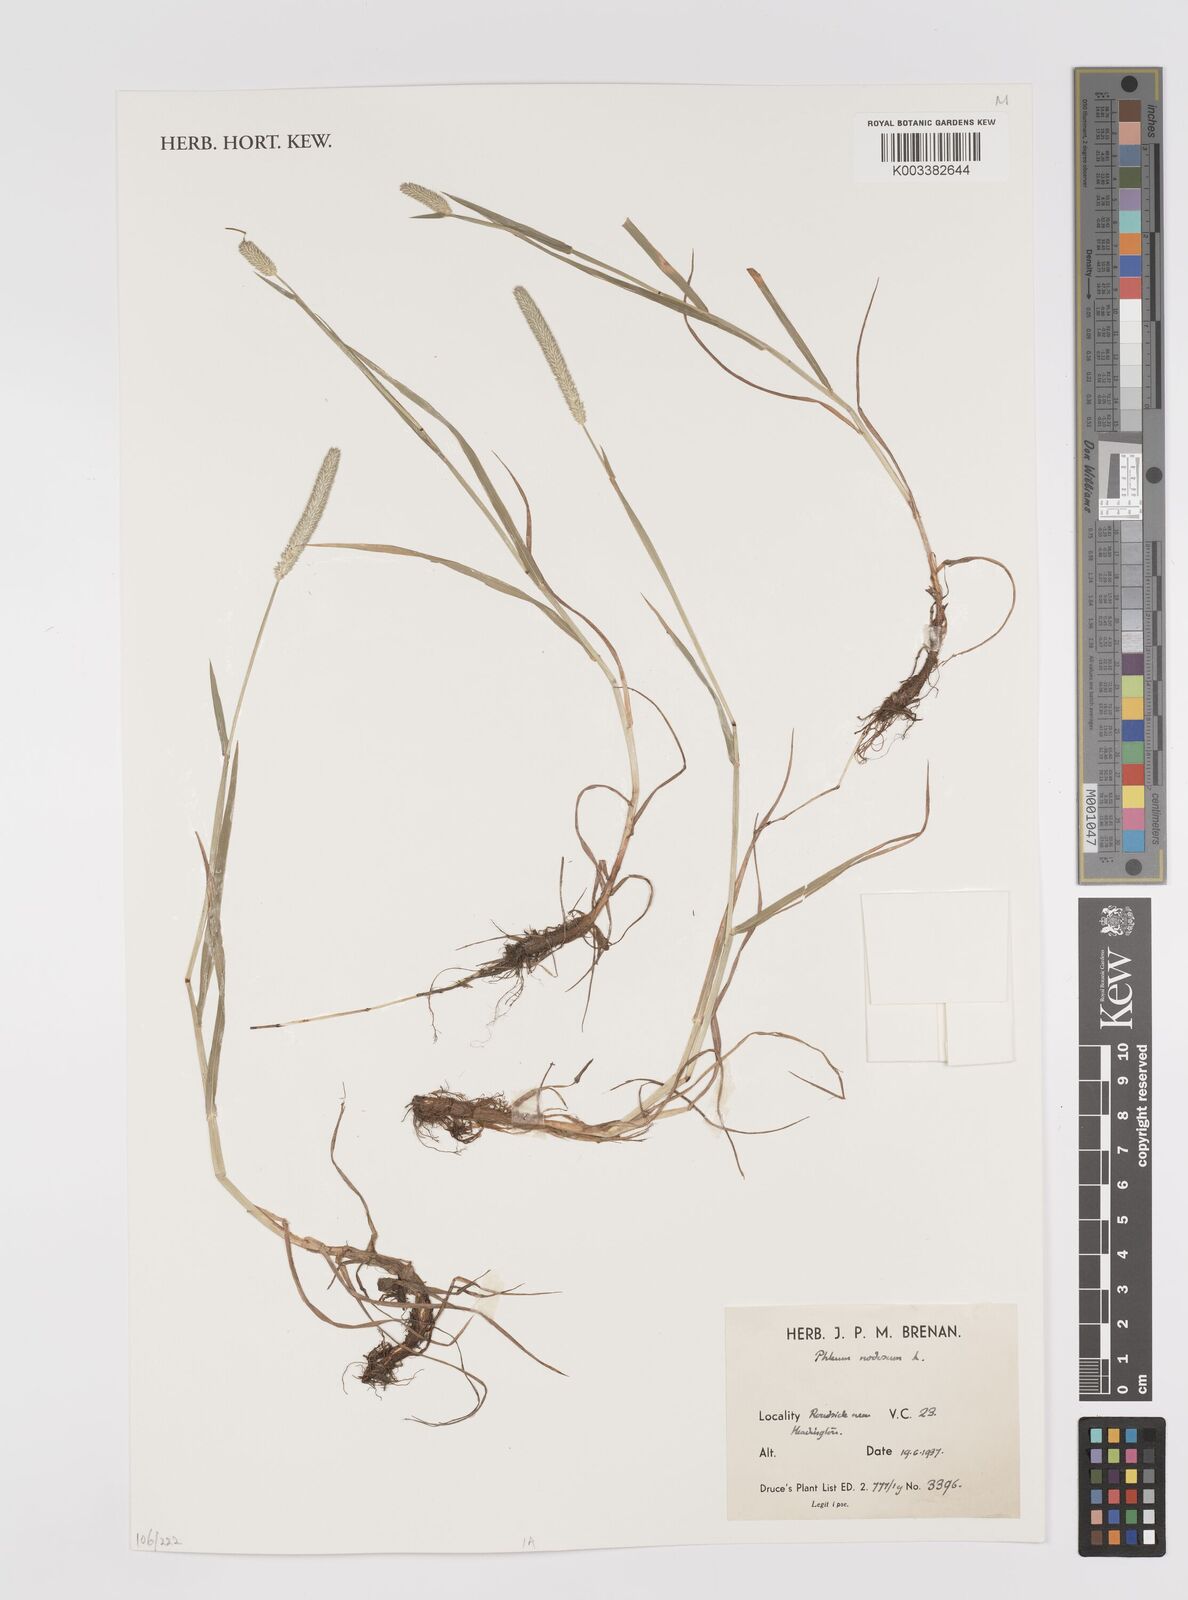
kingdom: Plantae
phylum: Tracheophyta
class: Liliopsida
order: Poales
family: Poaceae
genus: Phleum
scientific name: Phleum pratense
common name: Timothy grass
